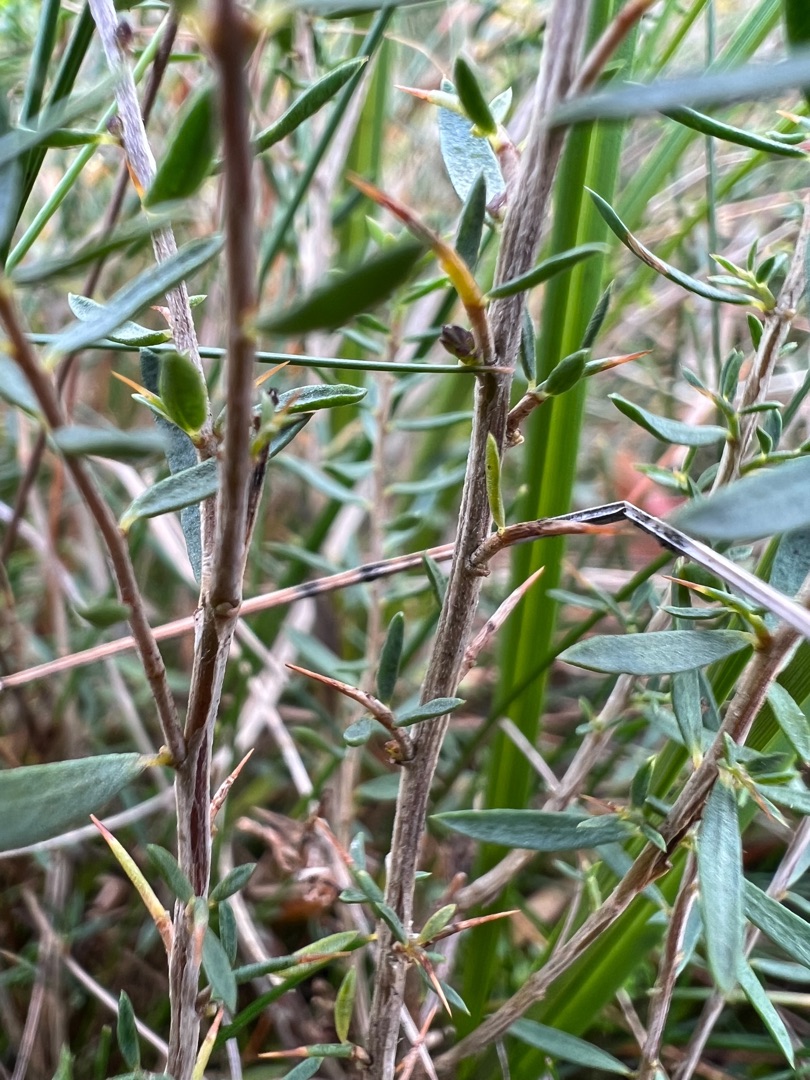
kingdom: Plantae
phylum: Tracheophyta
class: Magnoliopsida
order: Fabales
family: Fabaceae
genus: Genista
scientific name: Genista anglica
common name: Engelsk visse
